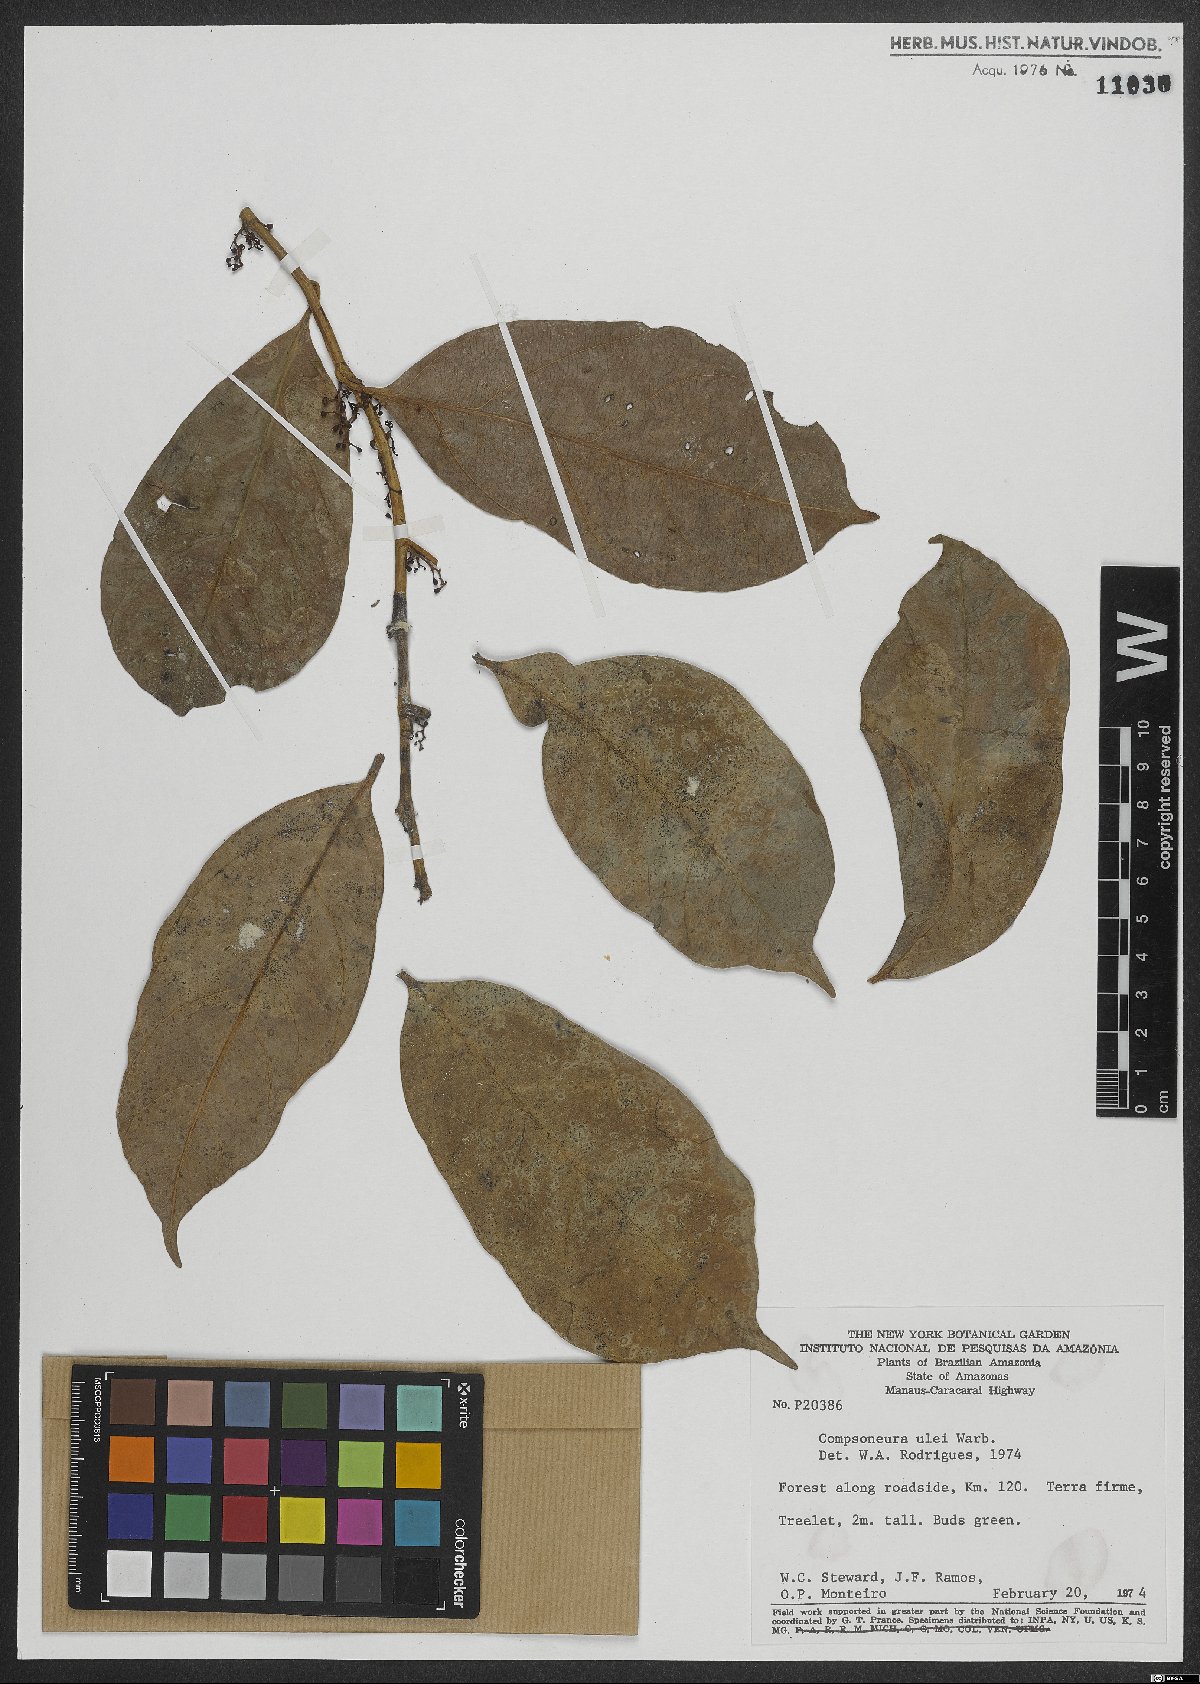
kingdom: Plantae
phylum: Tracheophyta
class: Magnoliopsida
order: Magnoliales
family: Myristicaceae
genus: Compsoneura
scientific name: Compsoneura ulei
